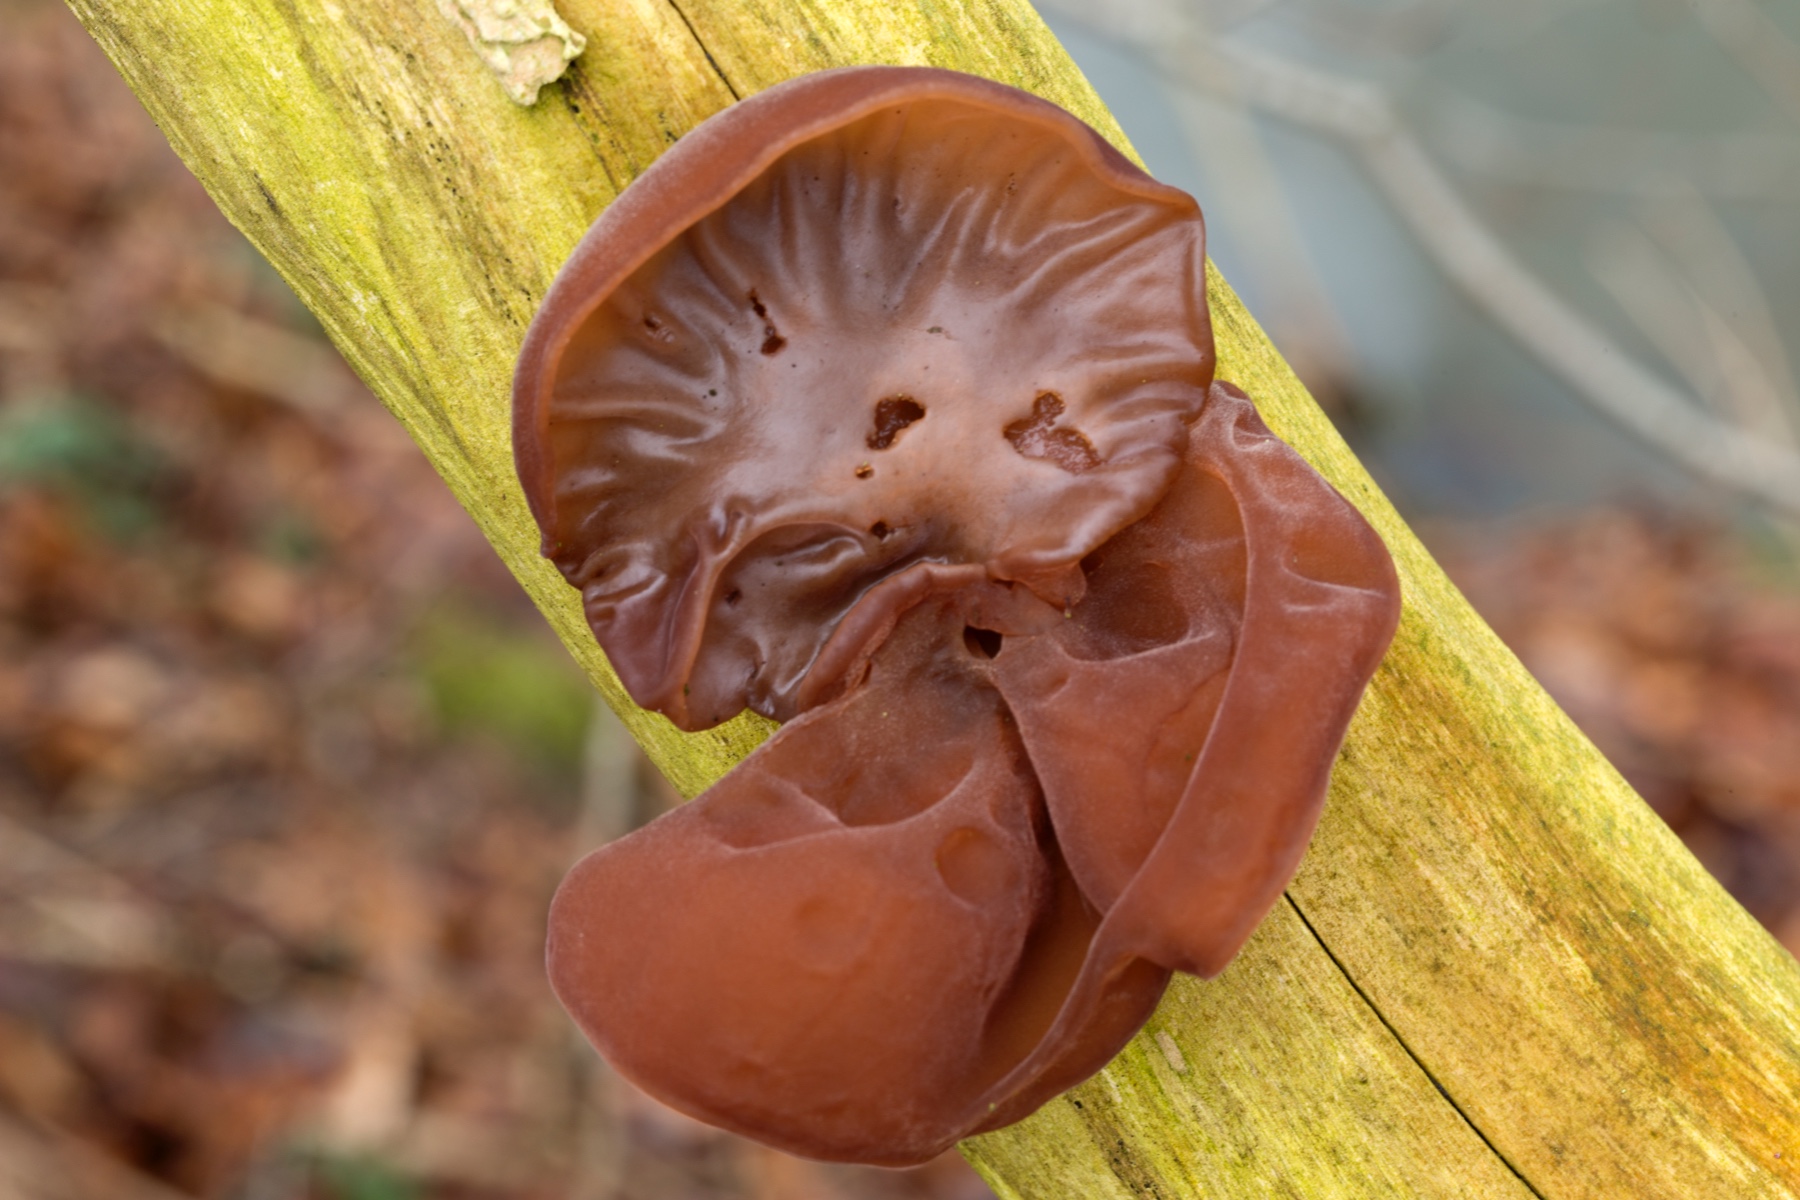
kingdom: Fungi
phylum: Basidiomycota
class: Agaricomycetes
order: Auriculariales
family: Auriculariaceae
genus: Auricularia
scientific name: Auricularia auricula-judae
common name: almindelig judasøre
